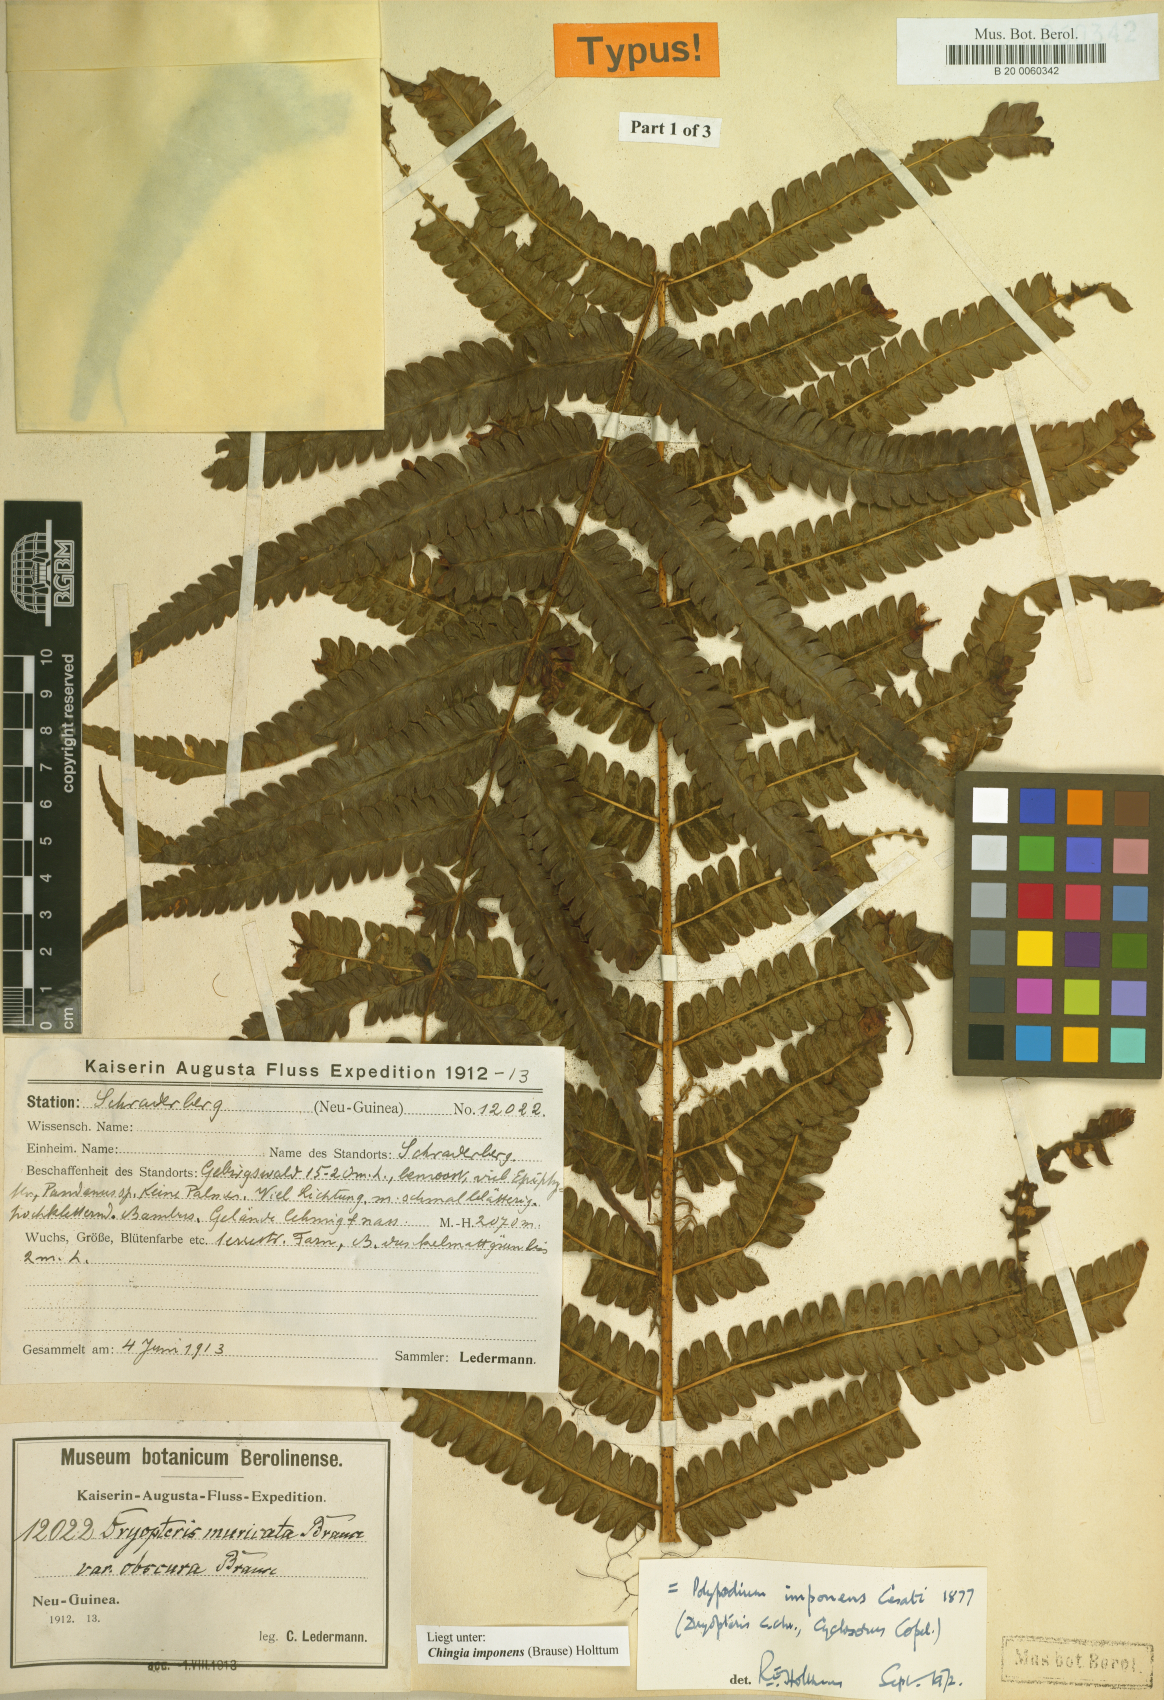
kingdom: Plantae
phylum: Tracheophyta
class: Polypodiopsida
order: Polypodiales
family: Thelypteridaceae
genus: Chingia
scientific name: Chingia imponens
